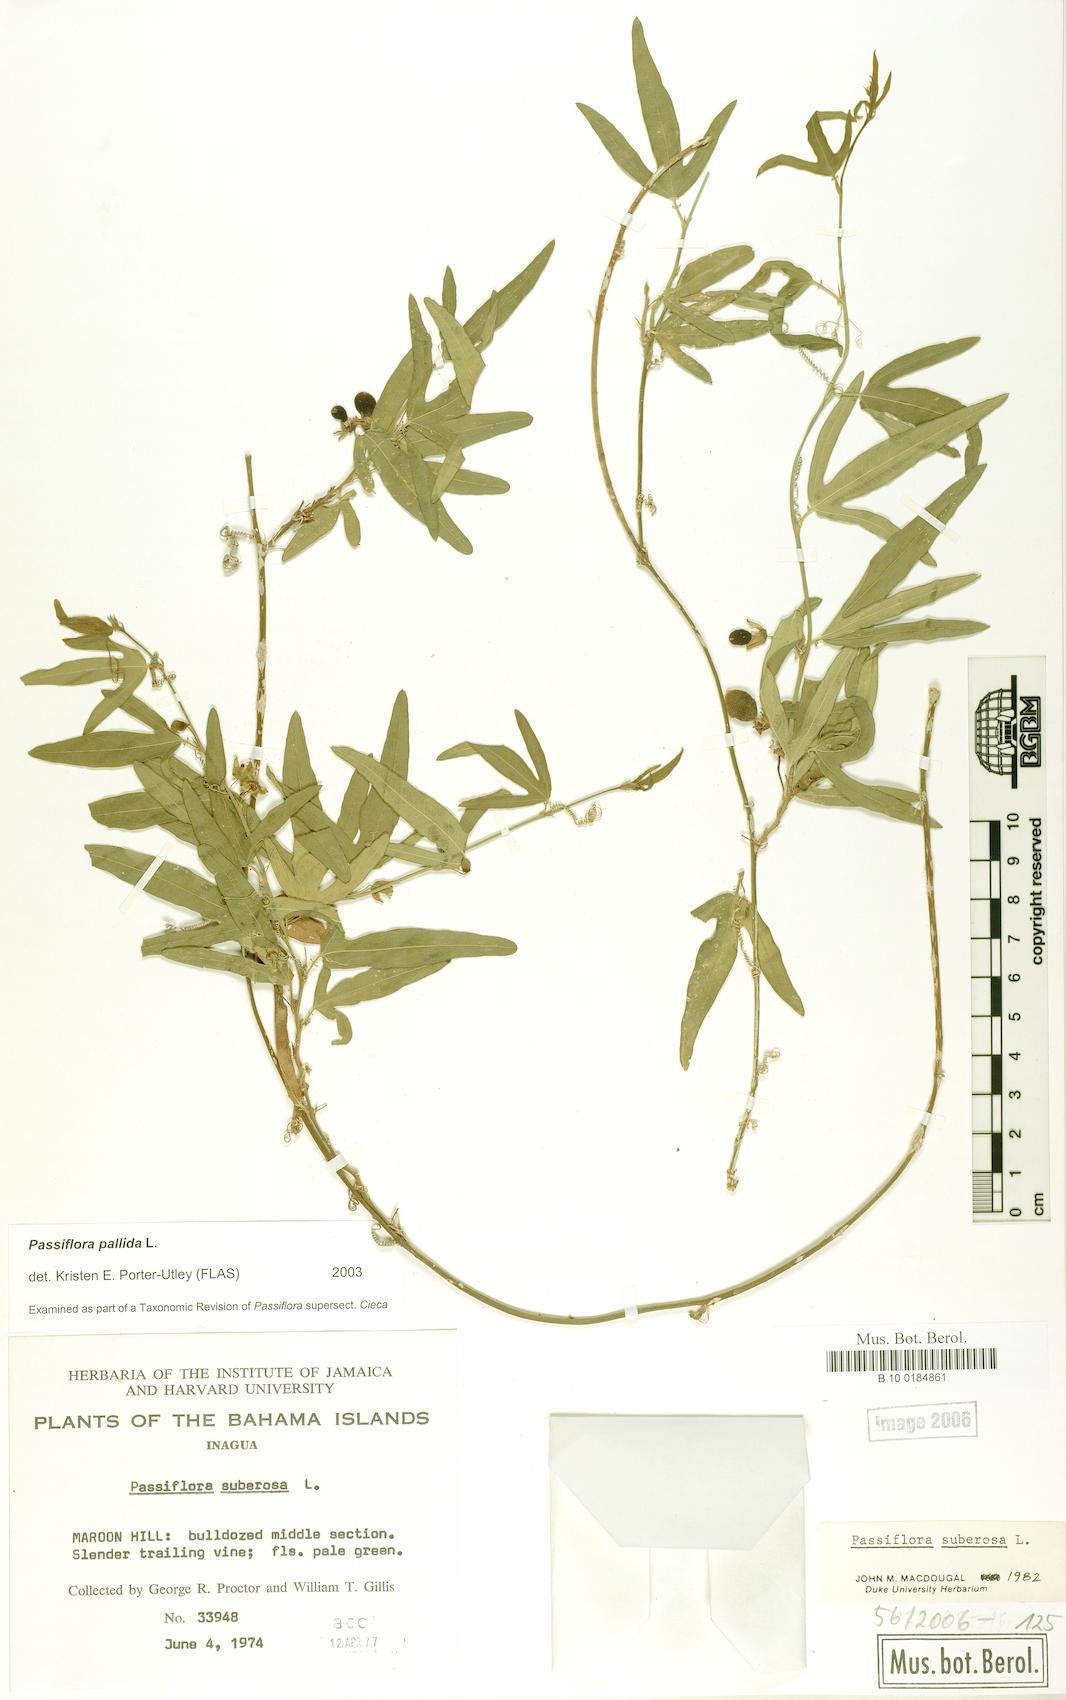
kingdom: Plantae
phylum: Tracheophyta
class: Magnoliopsida
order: Malpighiales
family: Passifloraceae
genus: Passiflora
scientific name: Passiflora pallida
